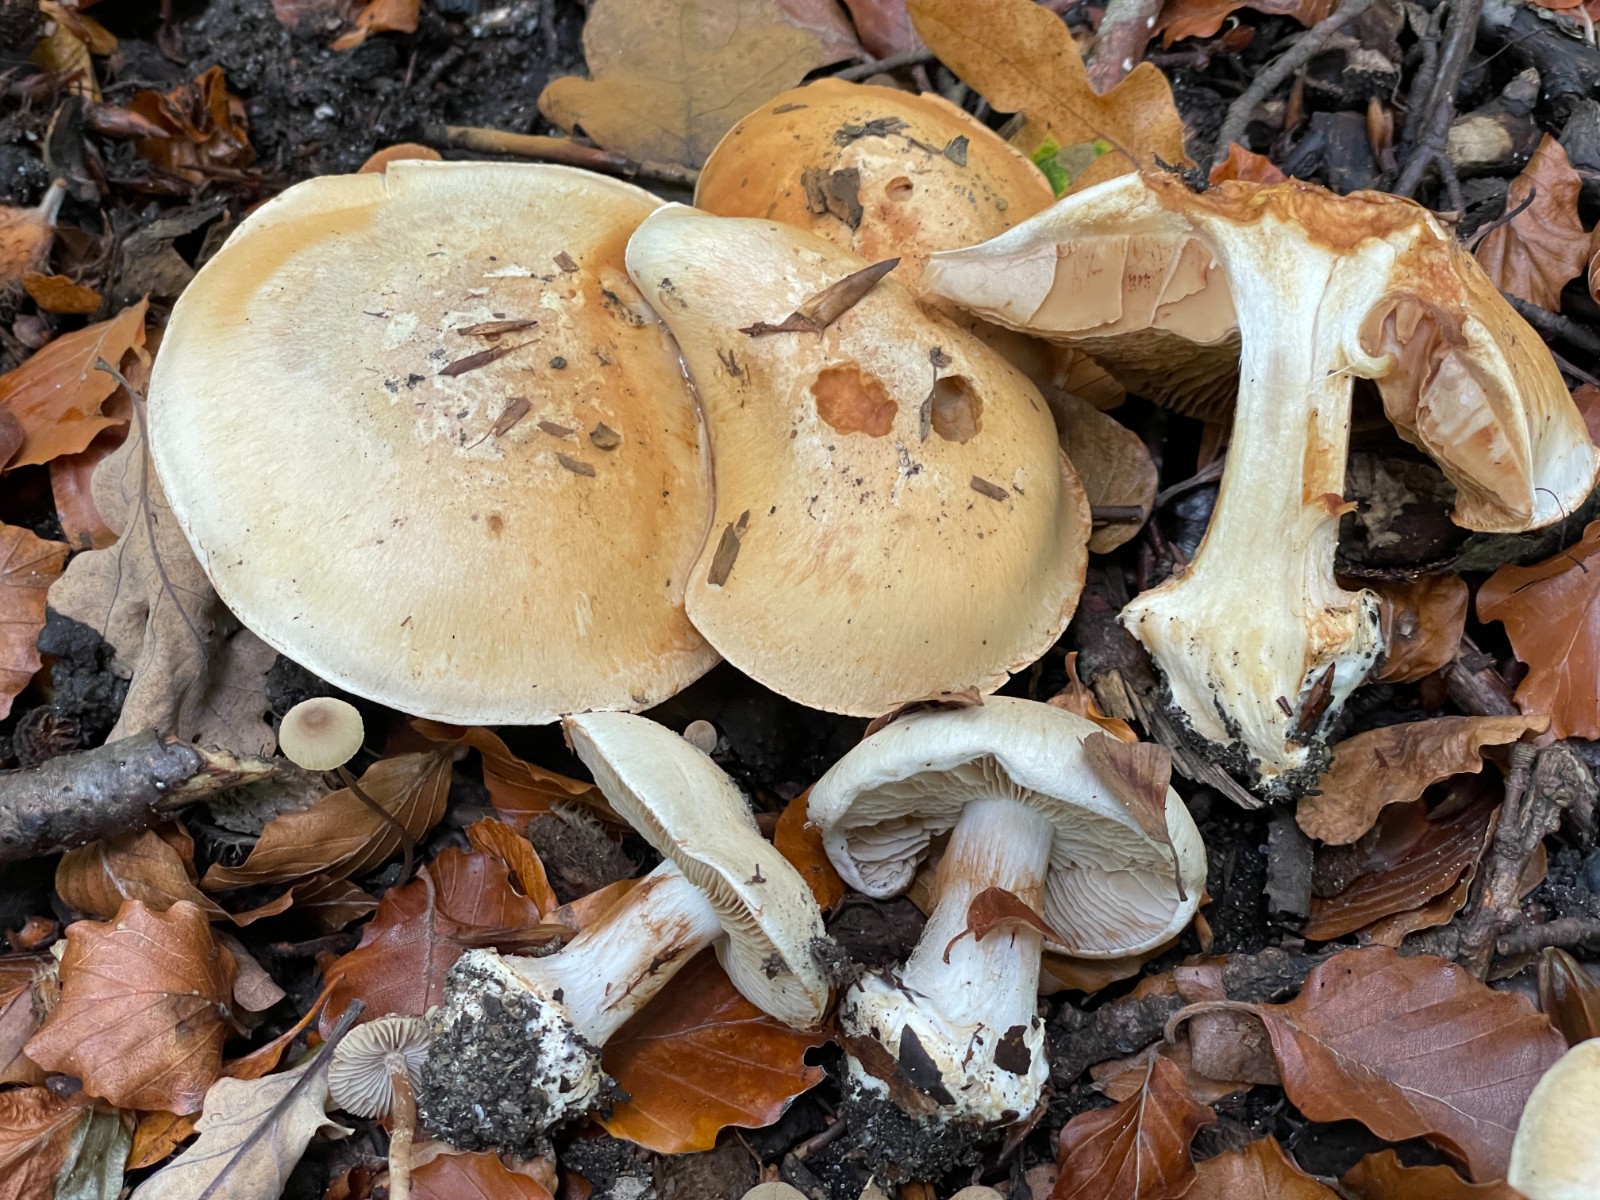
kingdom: Fungi
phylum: Basidiomycota
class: Agaricomycetes
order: Agaricales
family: Cortinariaceae
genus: Cortinarius
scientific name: Cortinarius foetens
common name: stribet slørhat
